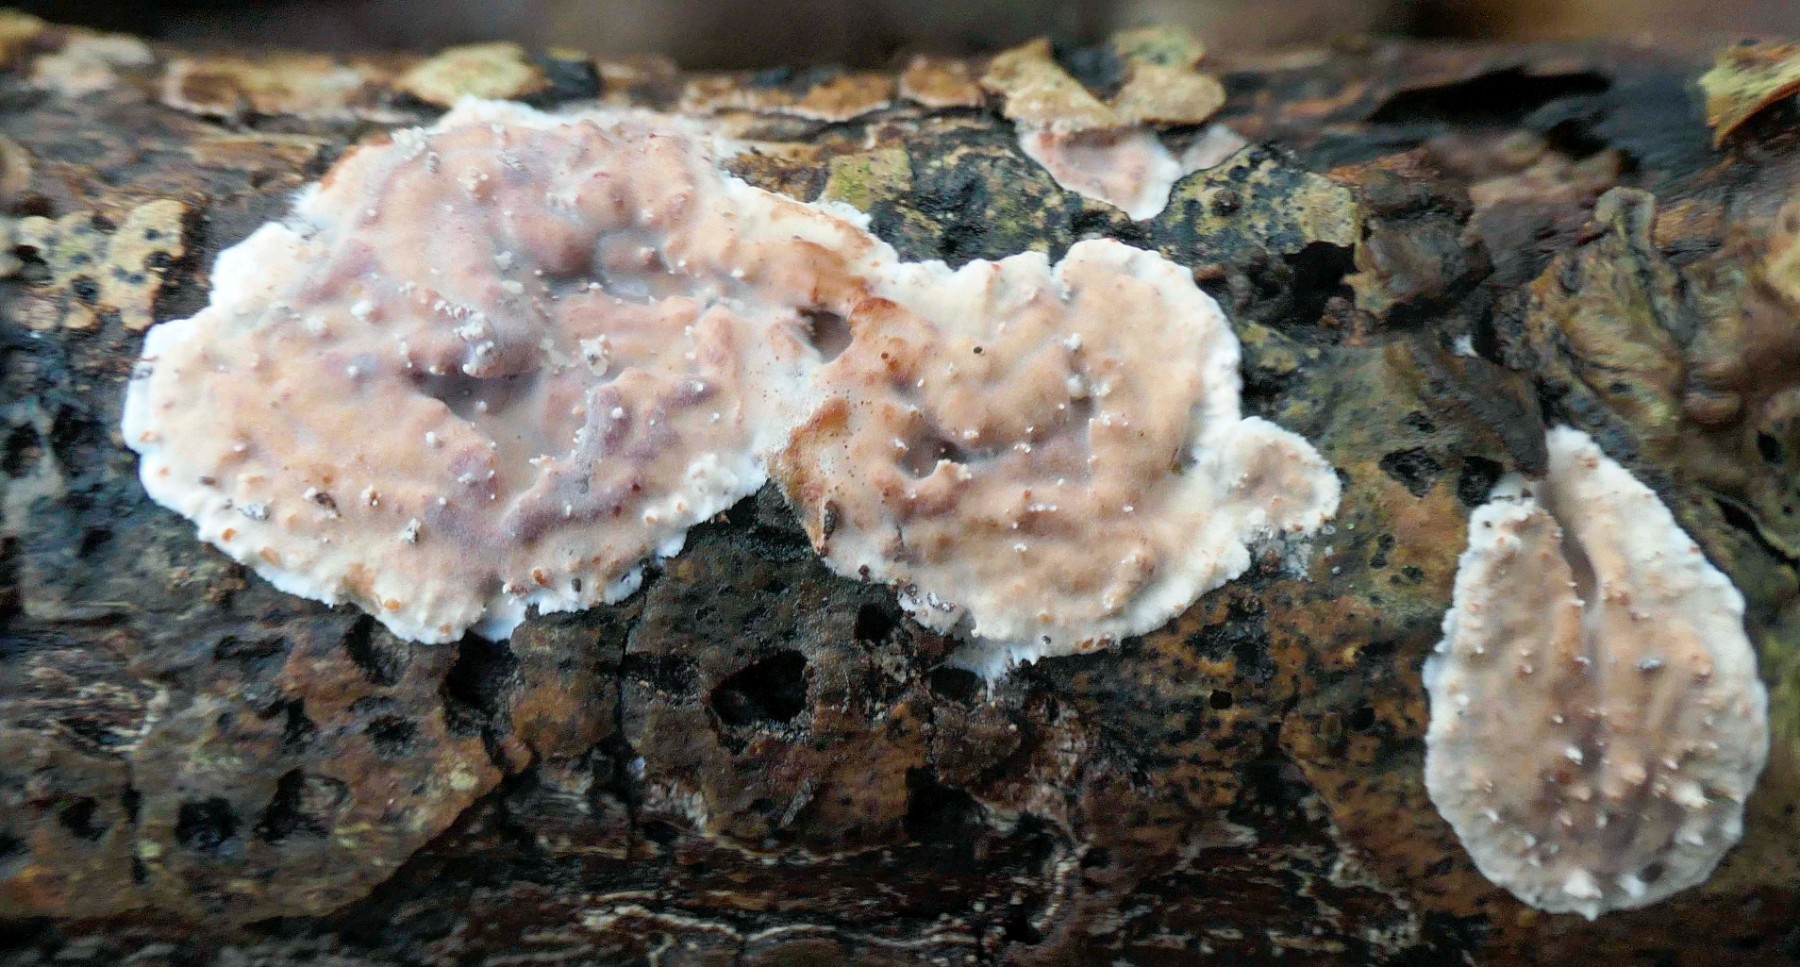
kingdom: Fungi
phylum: Basidiomycota
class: Agaricomycetes
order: Auriculariales
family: Auriculariaceae
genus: Heteroradulum
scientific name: Heteroradulum deglubens
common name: bævreskorpe
